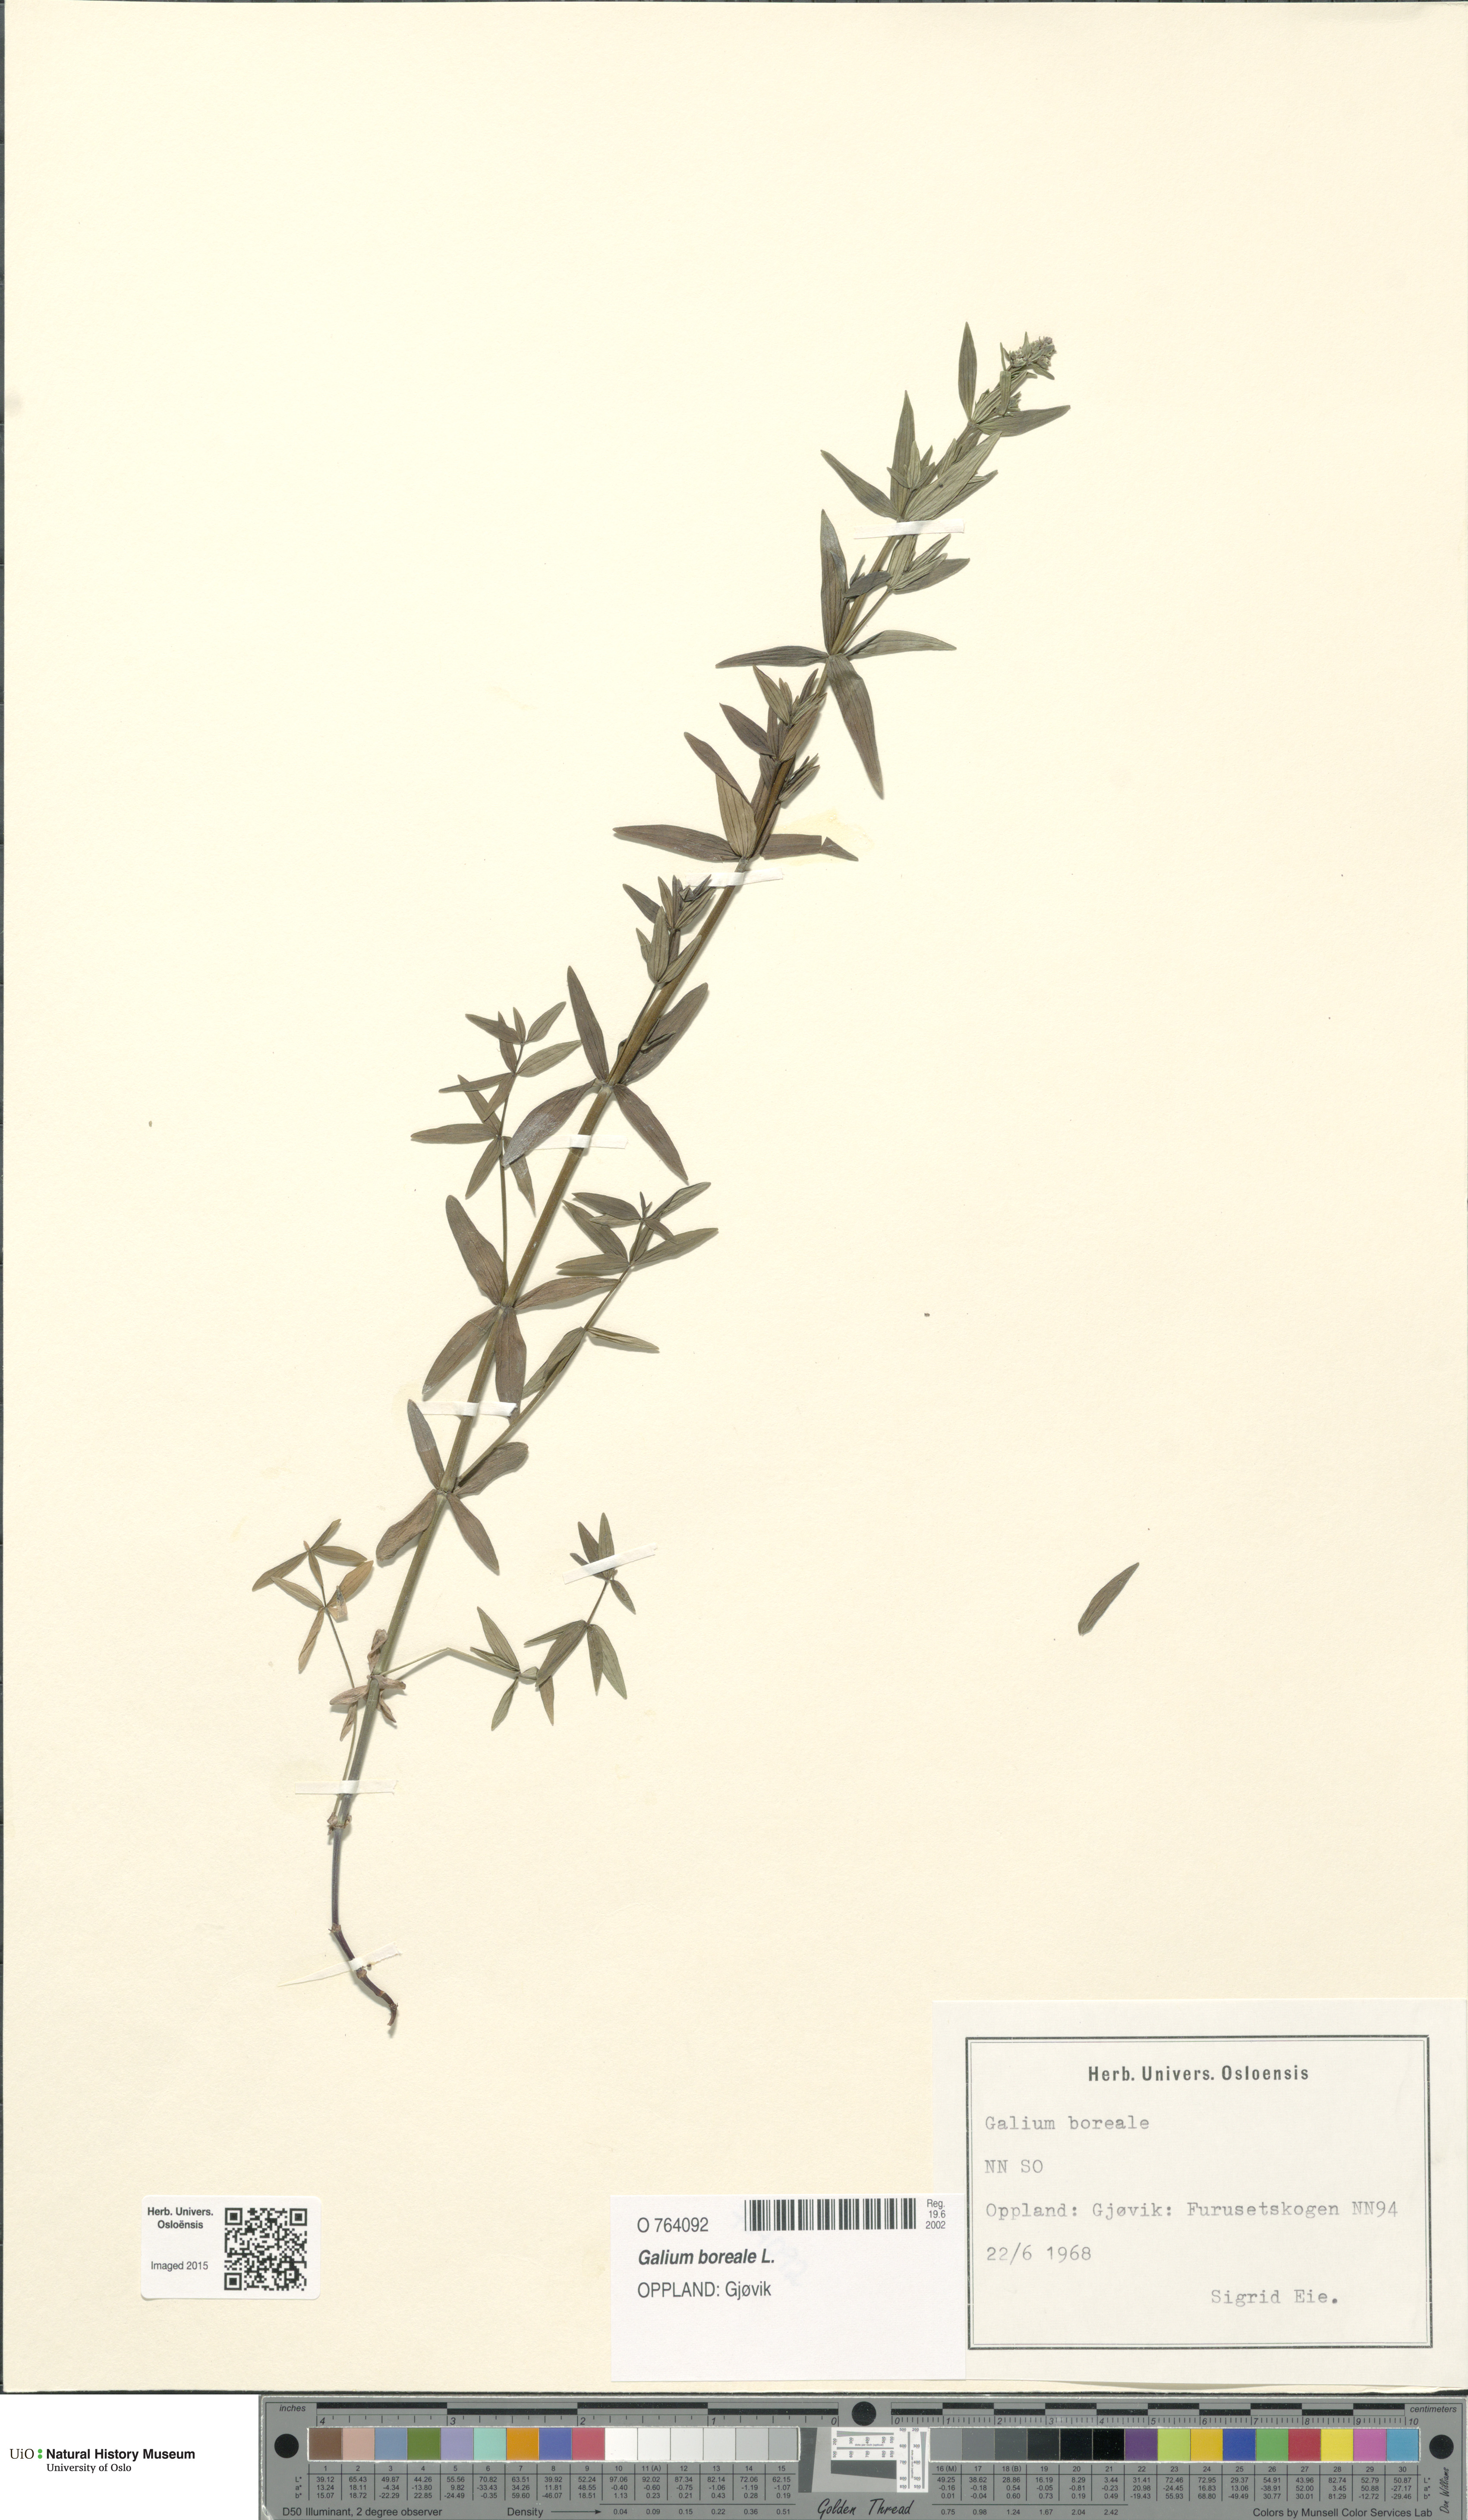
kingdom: Plantae
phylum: Tracheophyta
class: Magnoliopsida
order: Gentianales
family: Rubiaceae
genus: Galium
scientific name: Galium boreale
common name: Northern bedstraw
